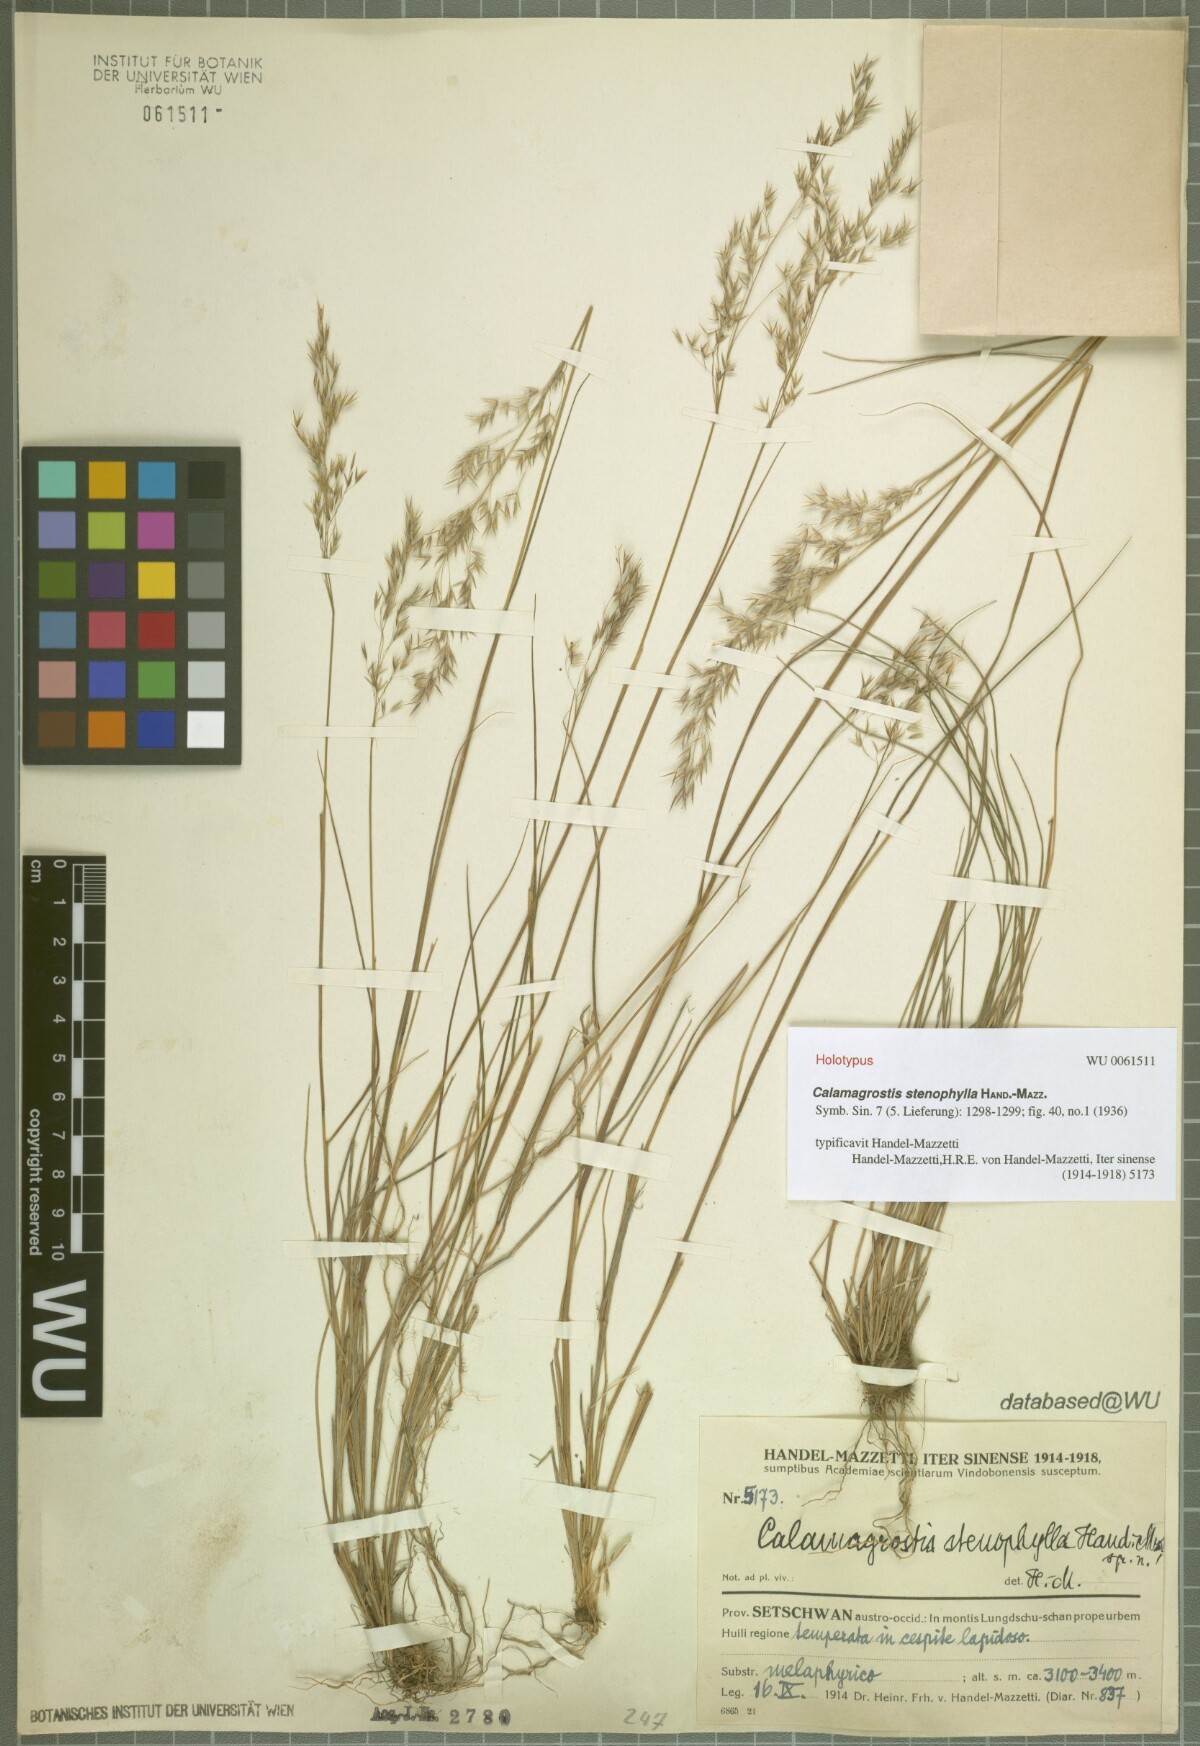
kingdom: Plantae
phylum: Tracheophyta
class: Liliopsida
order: Poales
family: Poaceae
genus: Calamagrostis
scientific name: Calamagrostis stenophylla
